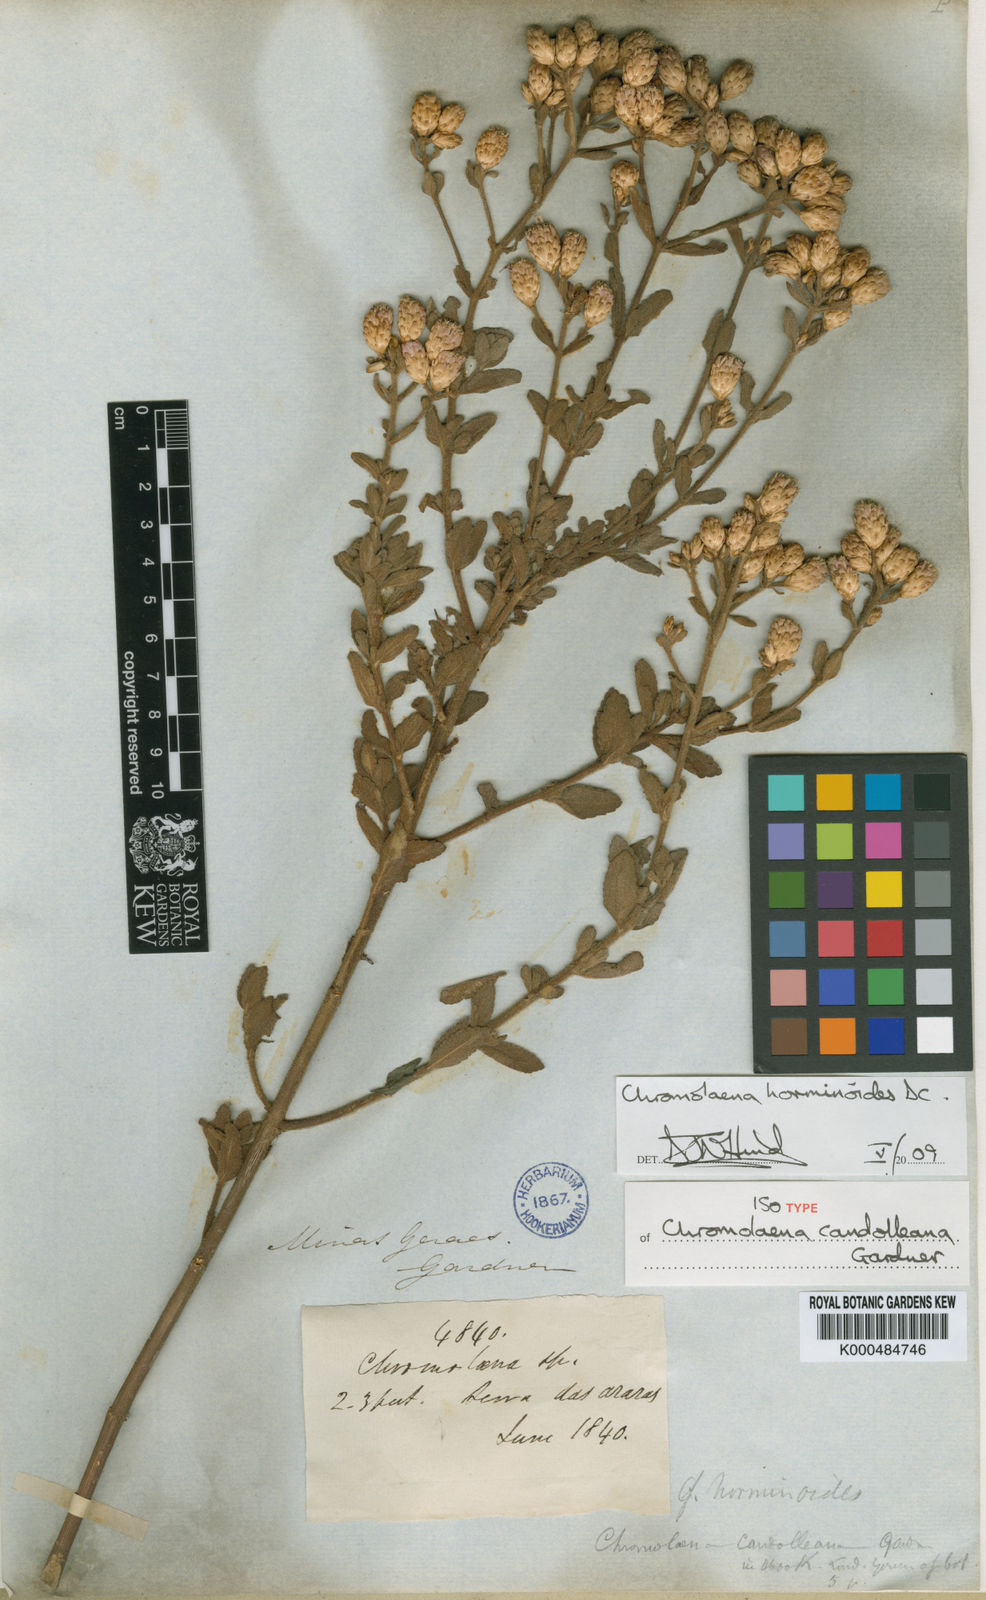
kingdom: Plantae
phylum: Tracheophyta
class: Magnoliopsida
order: Asterales
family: Asteraceae
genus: Chromolaena
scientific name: Chromolaena horminoides
